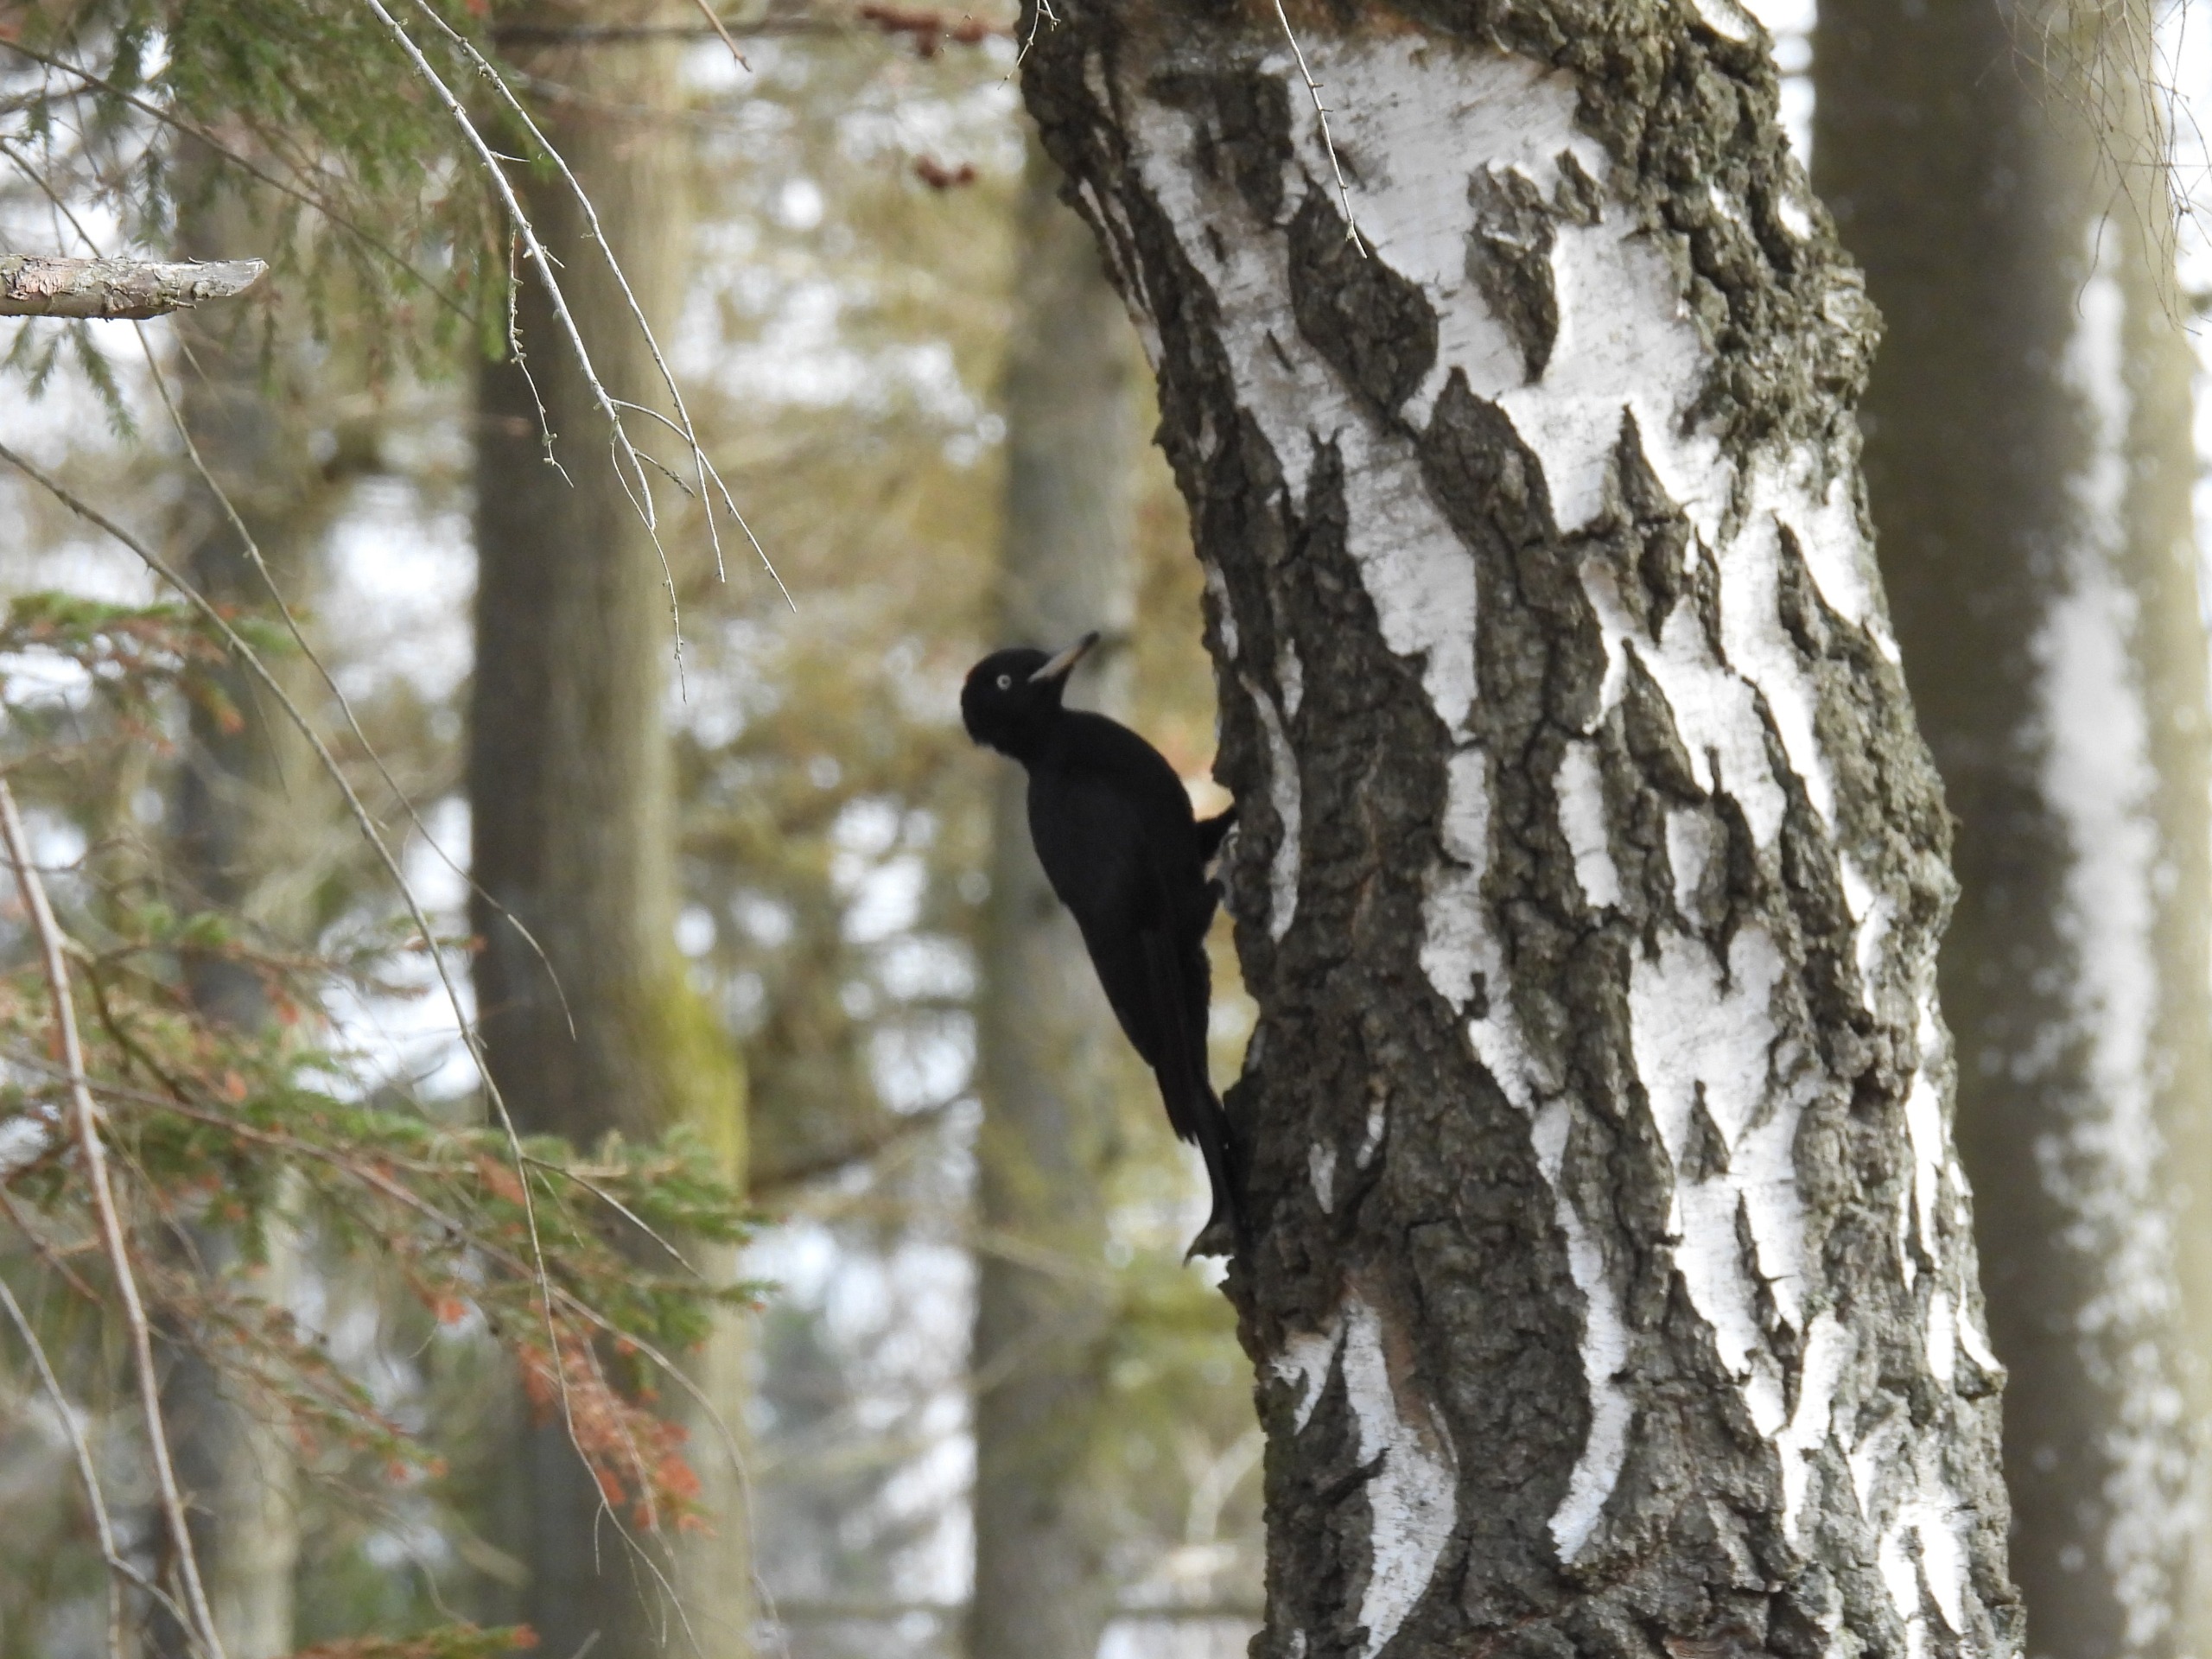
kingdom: Animalia
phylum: Chordata
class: Aves
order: Piciformes
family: Picidae
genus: Dryocopus
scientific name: Dryocopus martius
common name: Sortspætte
